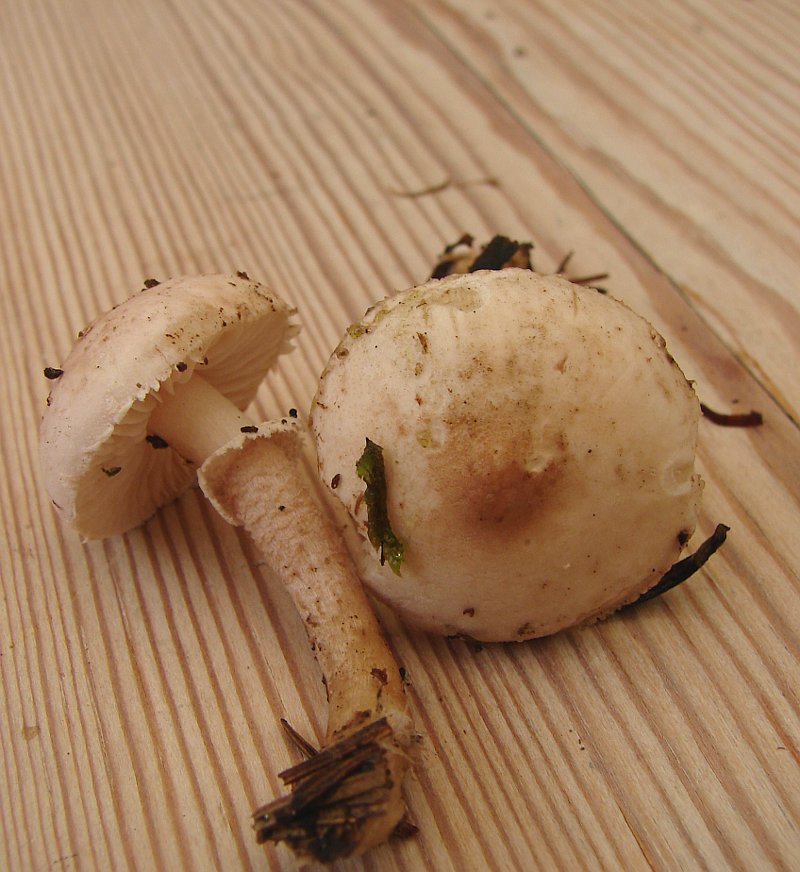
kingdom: Fungi
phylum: Basidiomycota
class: Agaricomycetes
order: Agaricales
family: Tricholomataceae
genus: Cystoderma
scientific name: Cystoderma carcharias
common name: rødgrå grynhat
